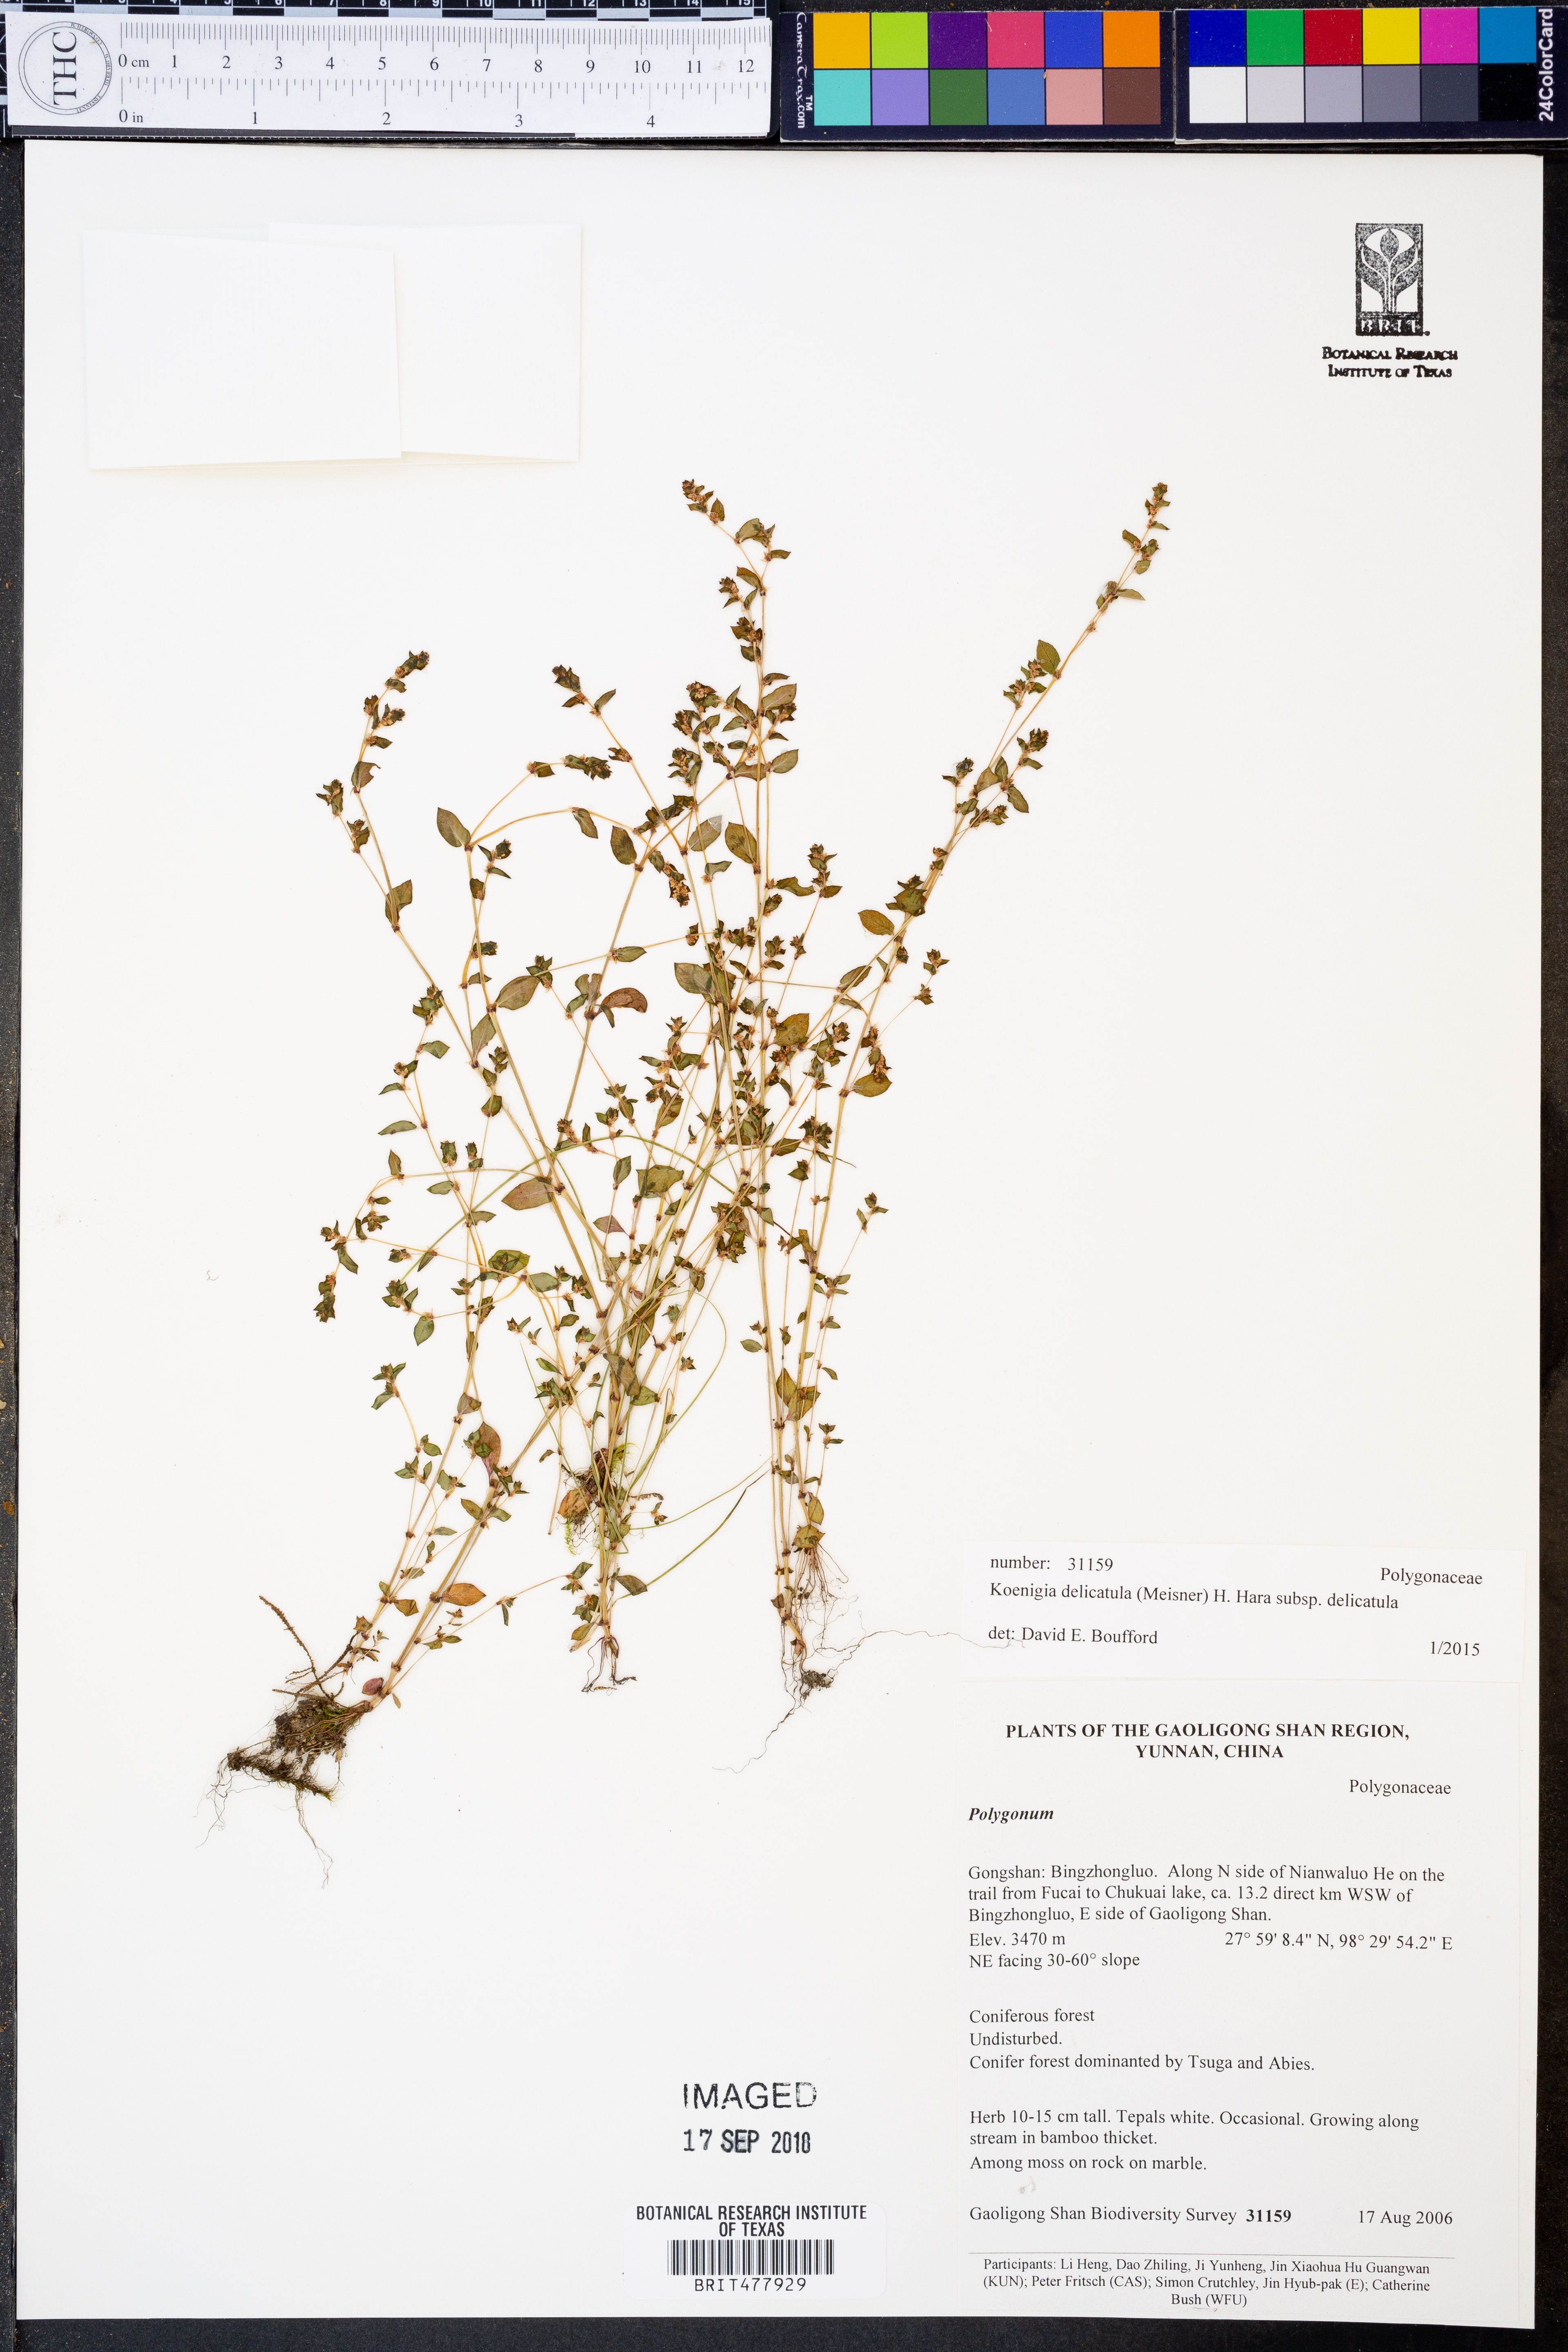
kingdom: Plantae
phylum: Tracheophyta
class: Magnoliopsida
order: Caryophyllales
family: Polygonaceae
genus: Koenigia
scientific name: Koenigia delicatula
